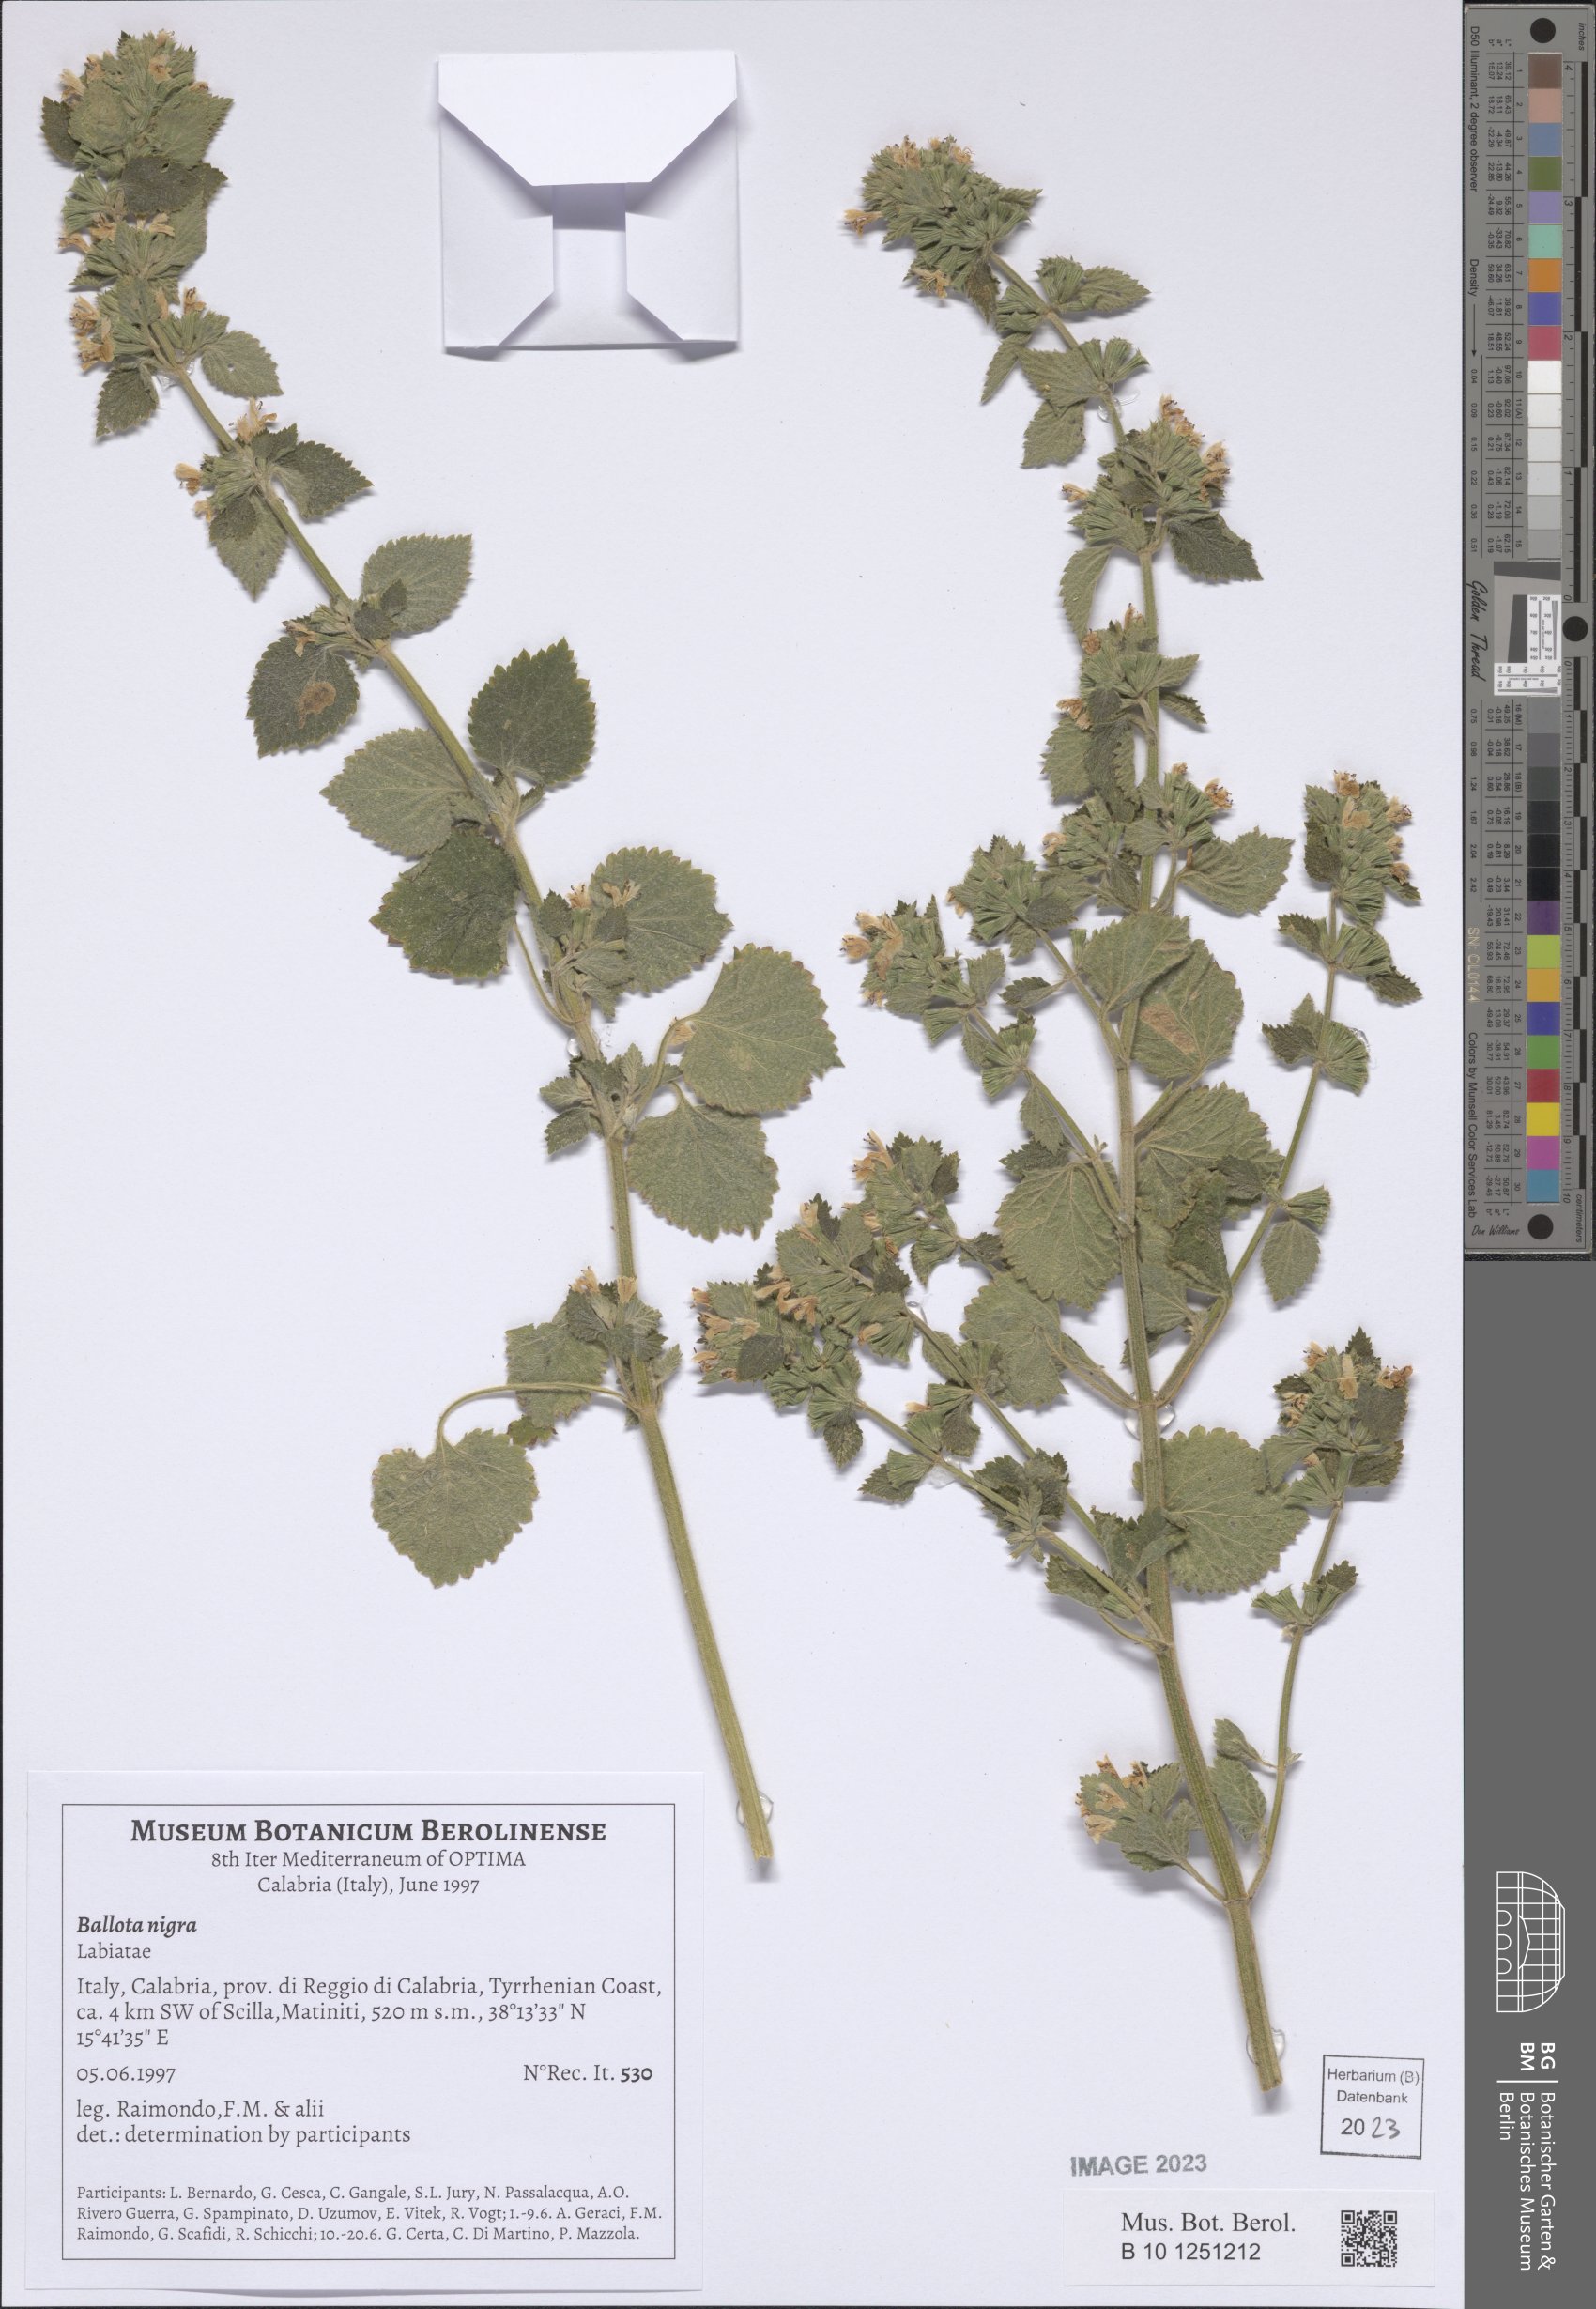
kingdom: Plantae
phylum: Tracheophyta
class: Magnoliopsida
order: Lamiales
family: Lamiaceae
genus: Ballota
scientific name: Ballota nigra
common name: Black horehound
